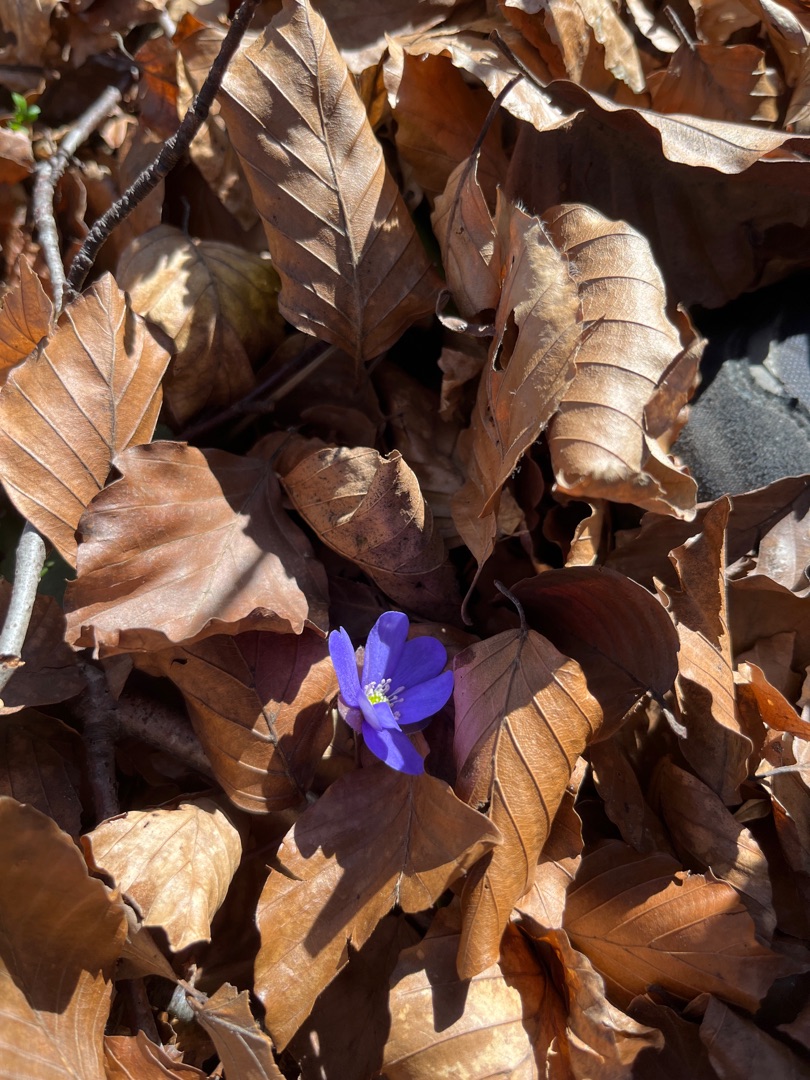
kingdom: Plantae
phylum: Tracheophyta
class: Magnoliopsida
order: Ranunculales
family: Ranunculaceae
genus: Hepatica
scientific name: Hepatica nobilis
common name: Blå anemone
